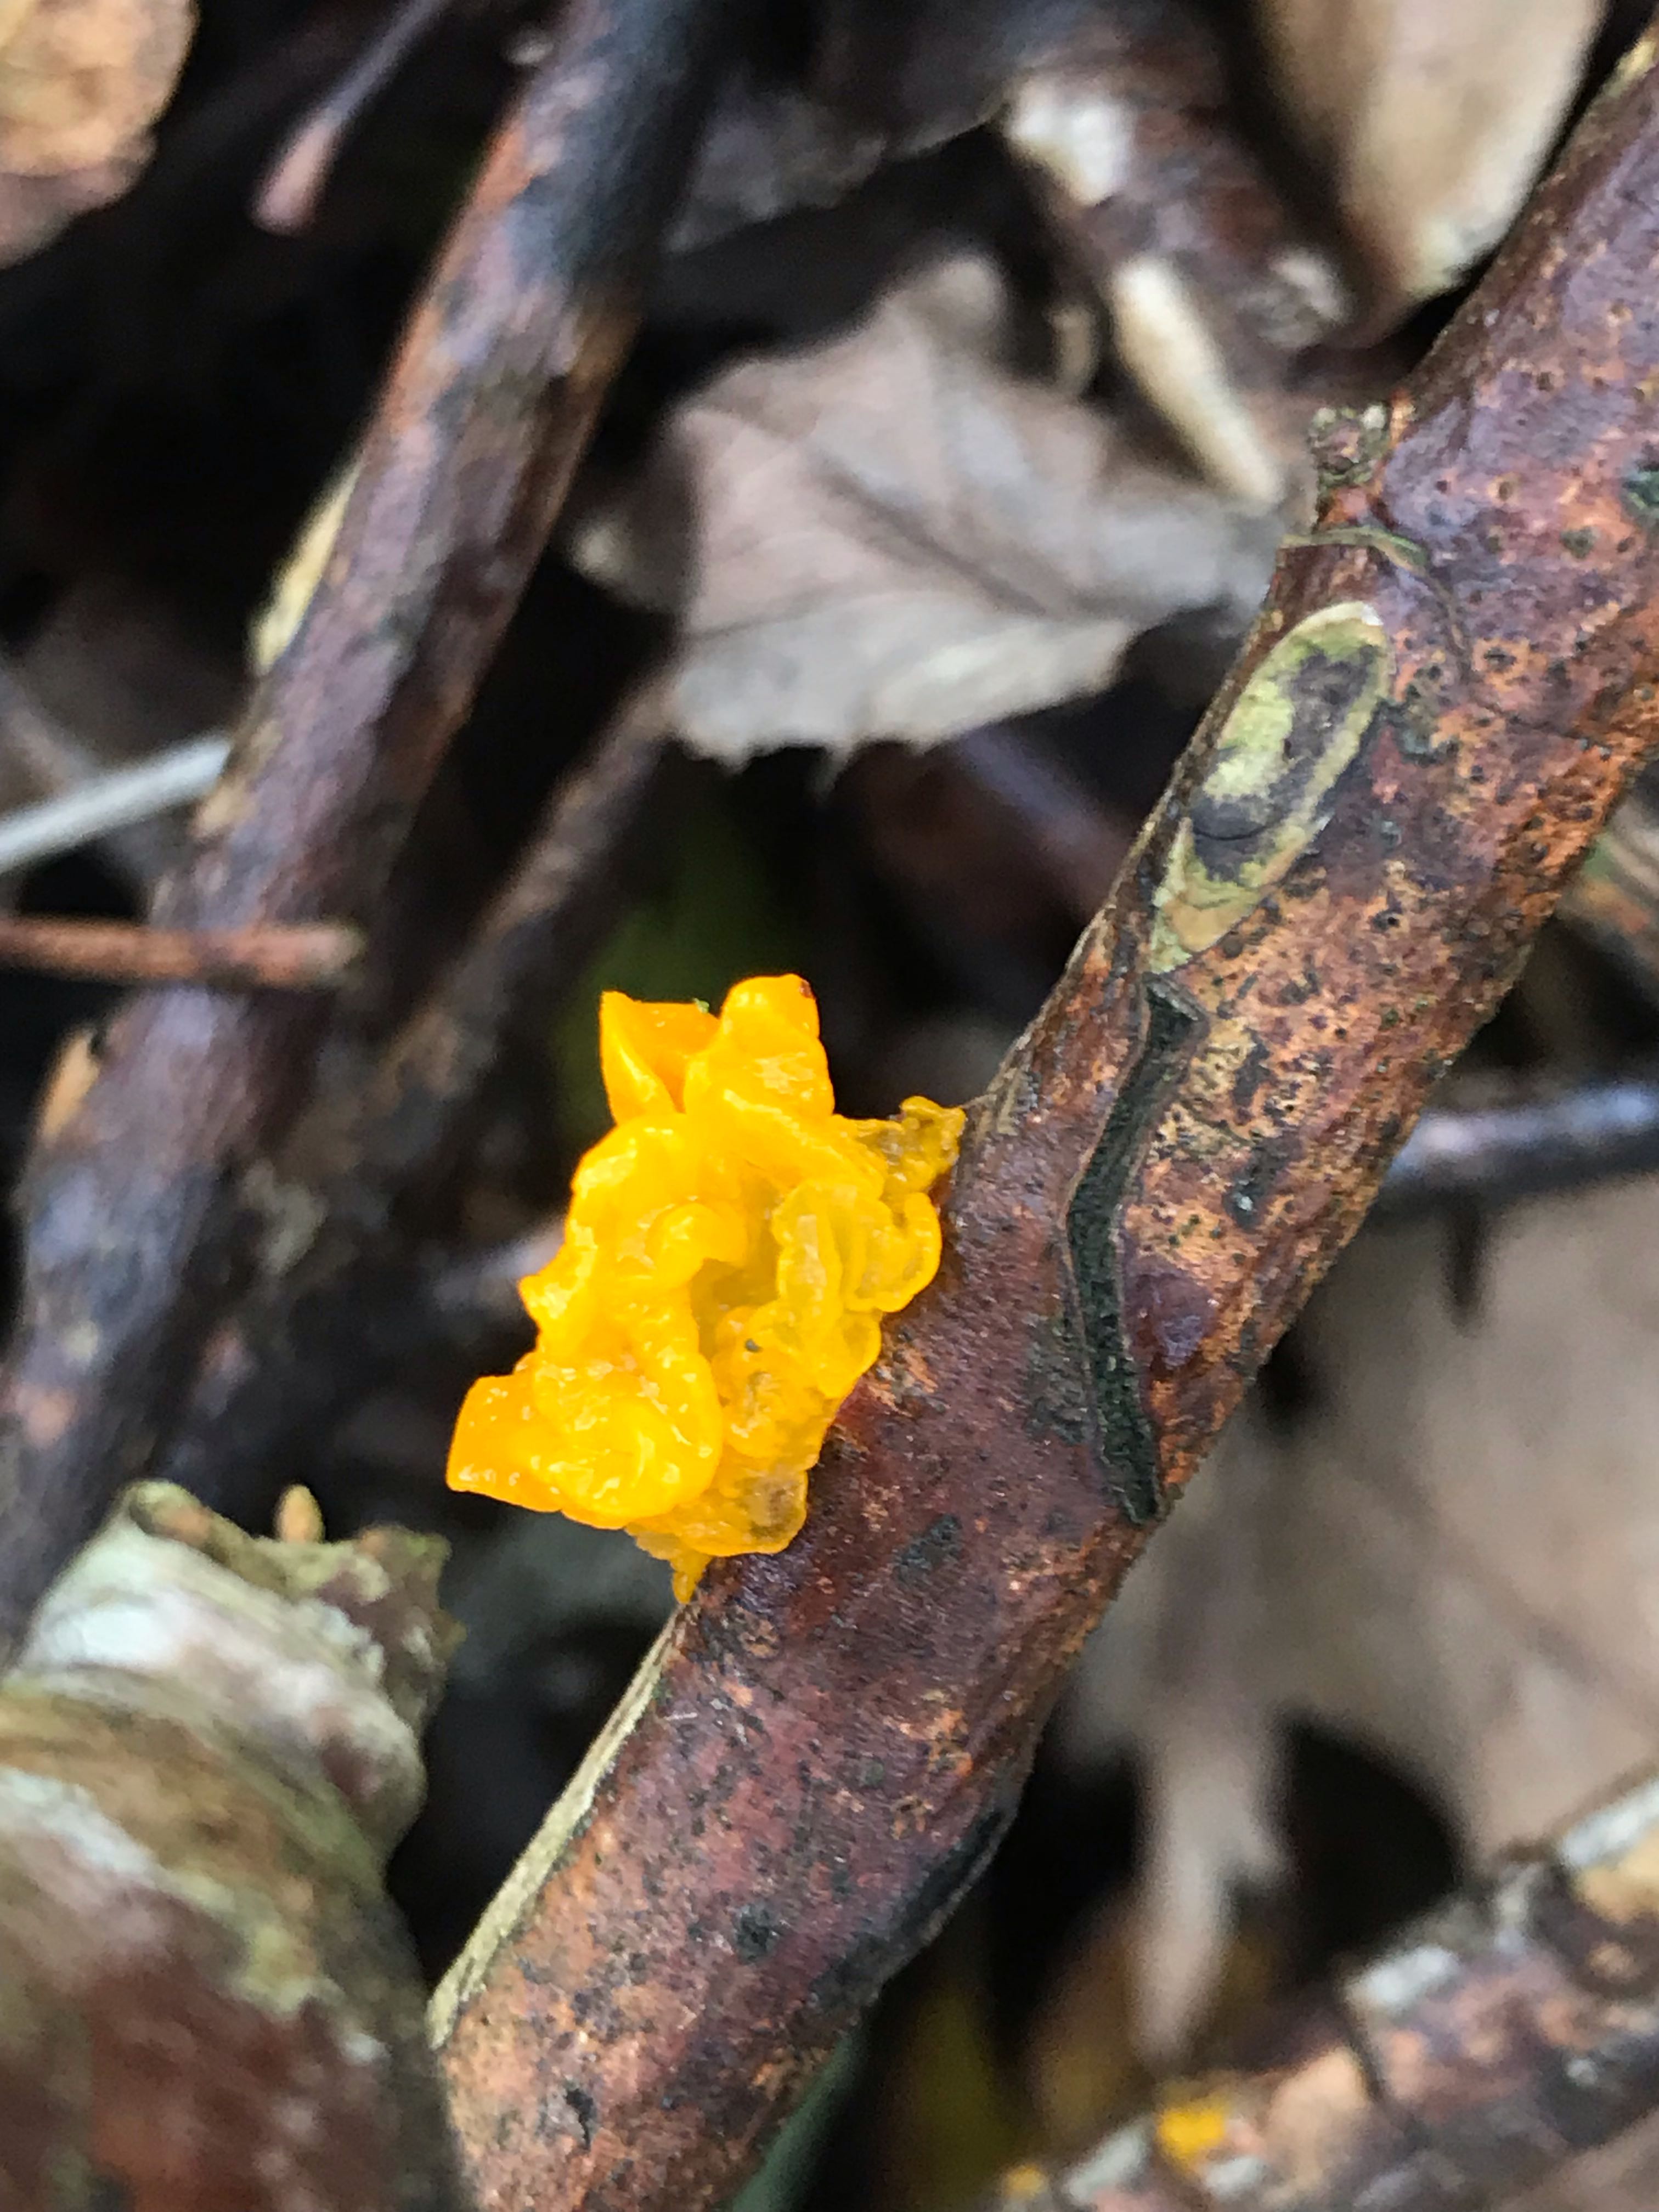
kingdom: Fungi
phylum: Basidiomycota
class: Tremellomycetes
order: Tremellales
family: Tremellaceae
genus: Tremella
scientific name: Tremella mesenterica
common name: gul bævresvamp
